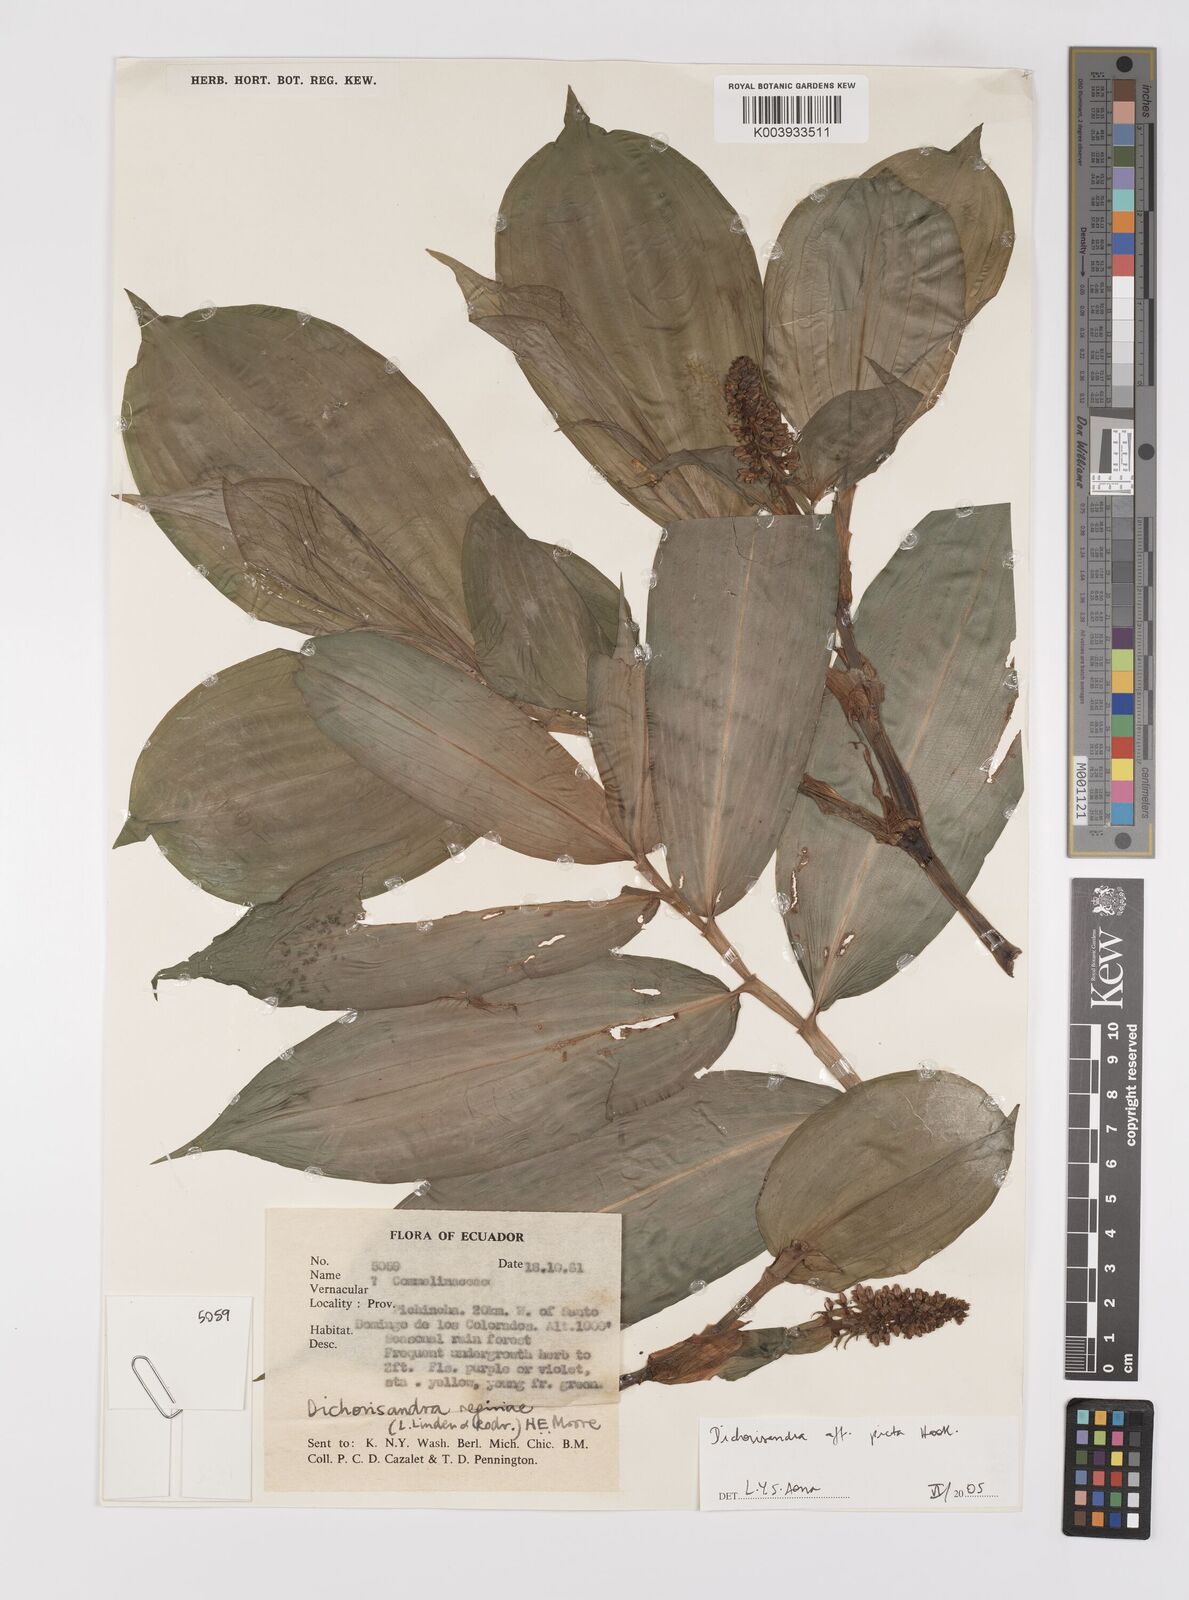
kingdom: Plantae
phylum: Tracheophyta
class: Liliopsida
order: Commelinales
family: Commelinaceae
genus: Dichorisandra
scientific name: Dichorisandra picta
